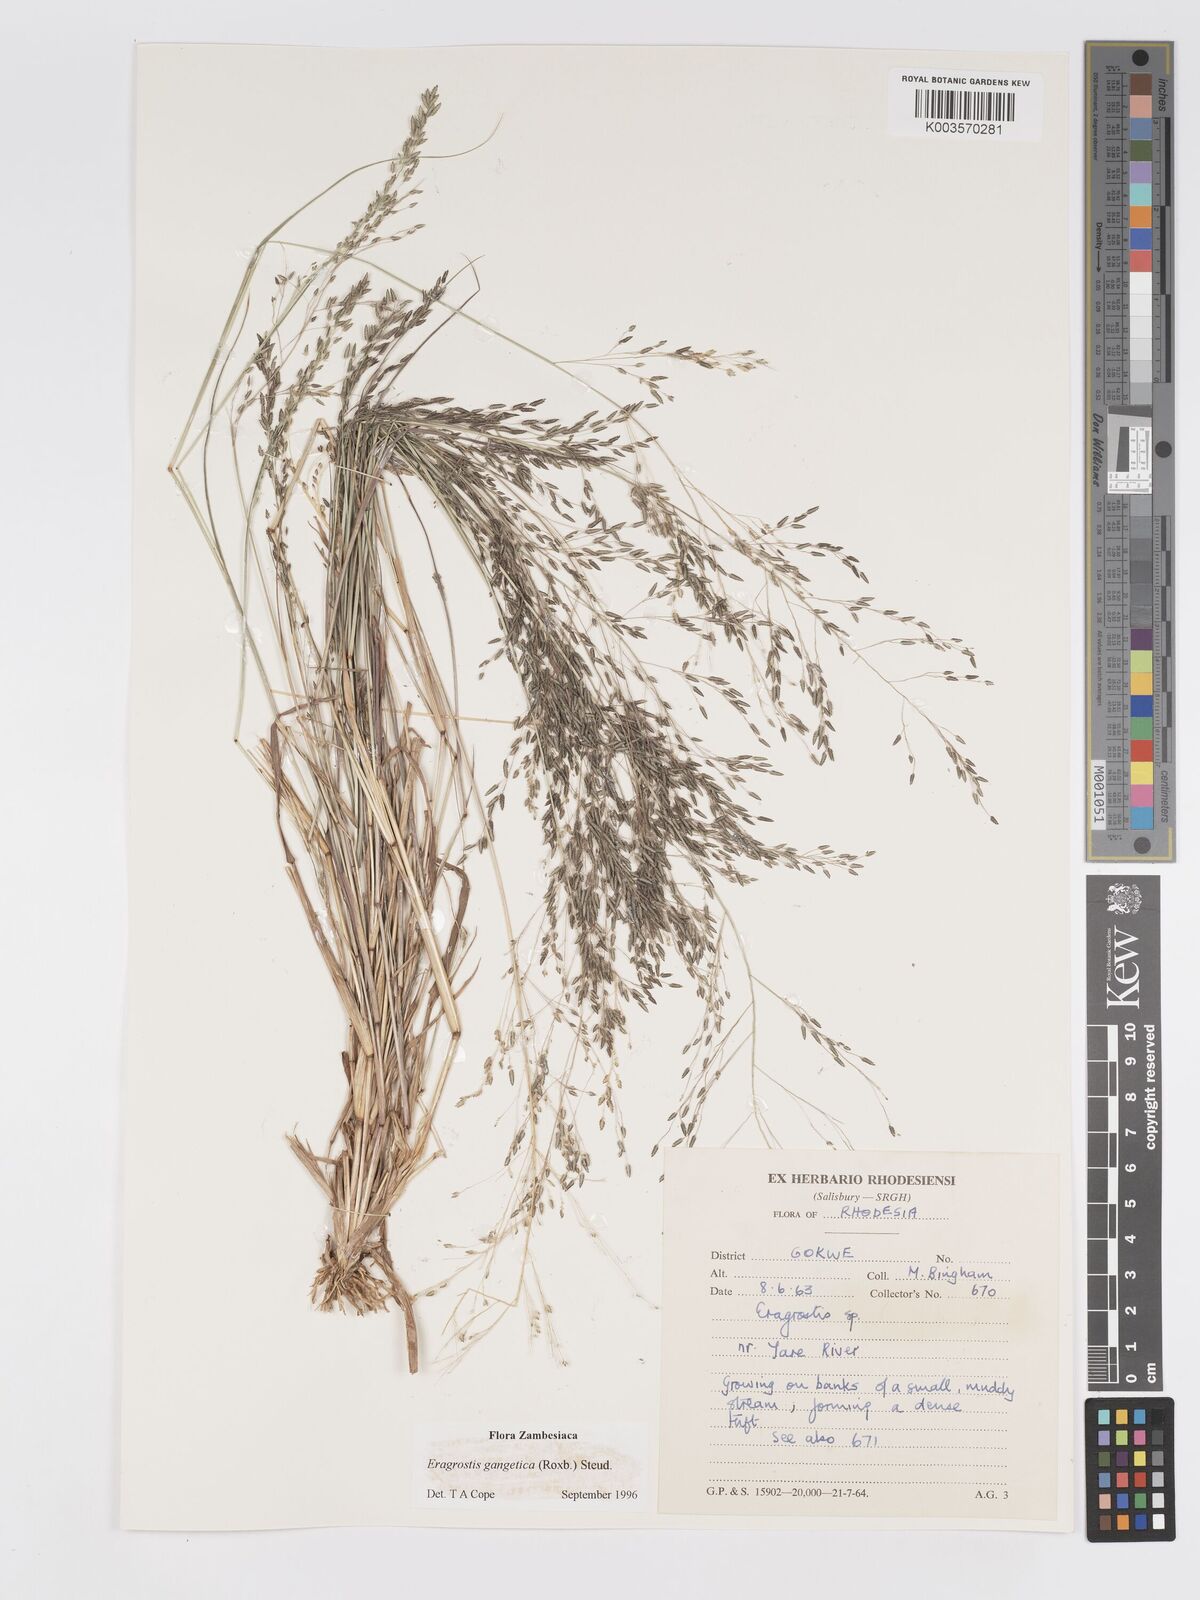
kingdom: Plantae
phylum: Tracheophyta
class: Liliopsida
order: Poales
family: Poaceae
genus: Eragrostis
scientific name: Eragrostis gangetica
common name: Slimflower lovegrass
